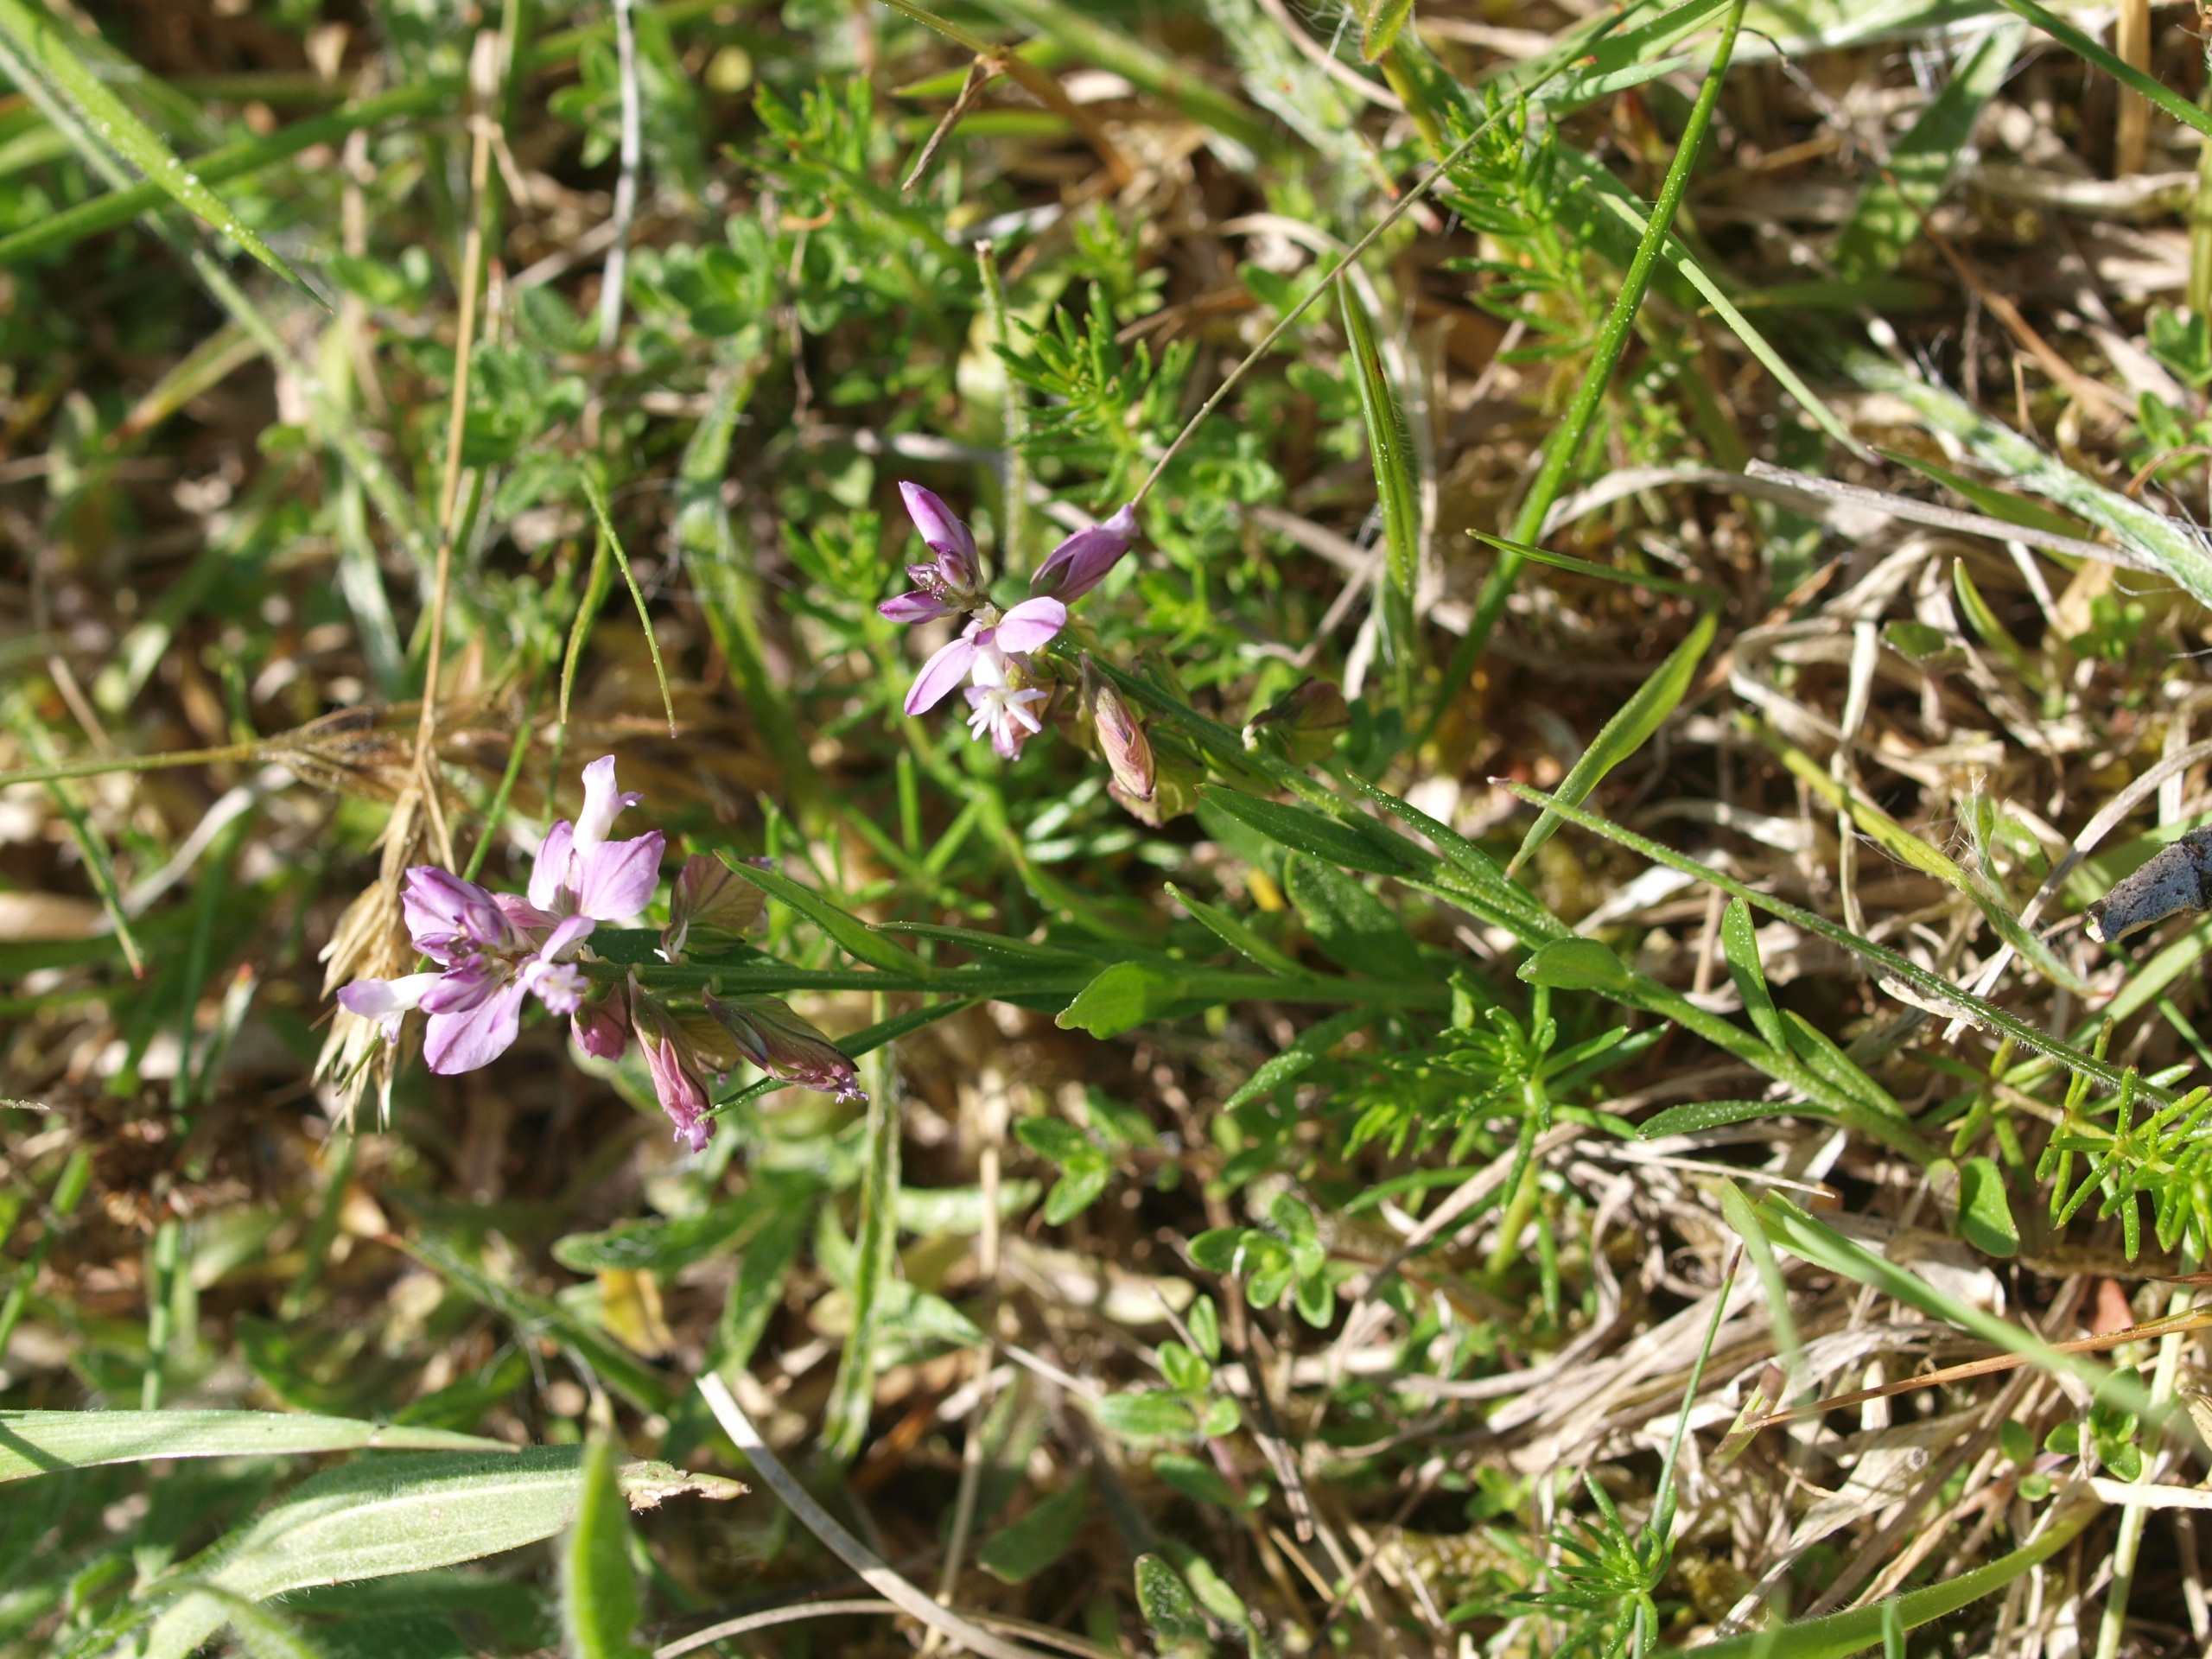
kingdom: Plantae
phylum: Tracheophyta
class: Magnoliopsida
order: Fabales
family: Polygalaceae
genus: Polygala
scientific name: Polygala vulgaris
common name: Almindelig mælkeurt
